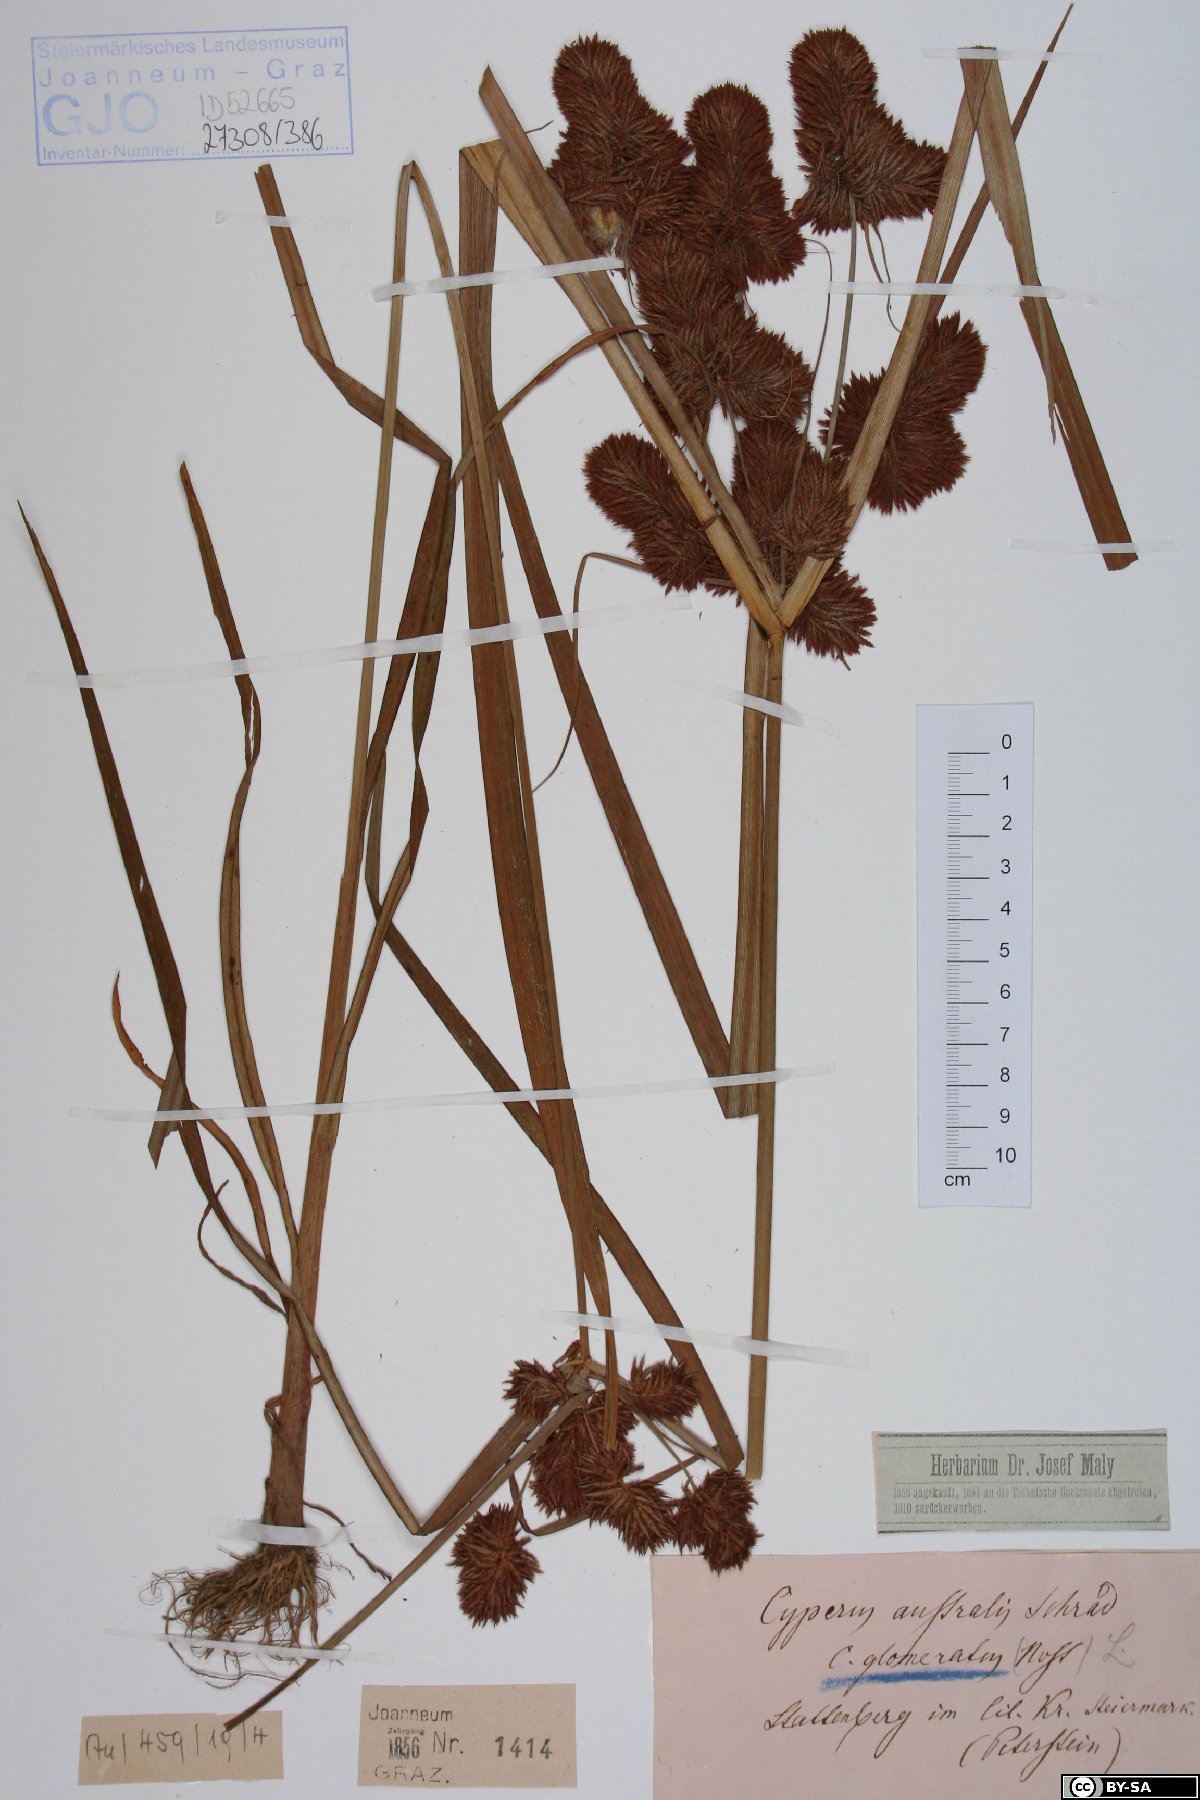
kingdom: Plantae
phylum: Tracheophyta
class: Liliopsida
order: Poales
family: Cyperaceae
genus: Cyperus
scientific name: Cyperus glomeratus
